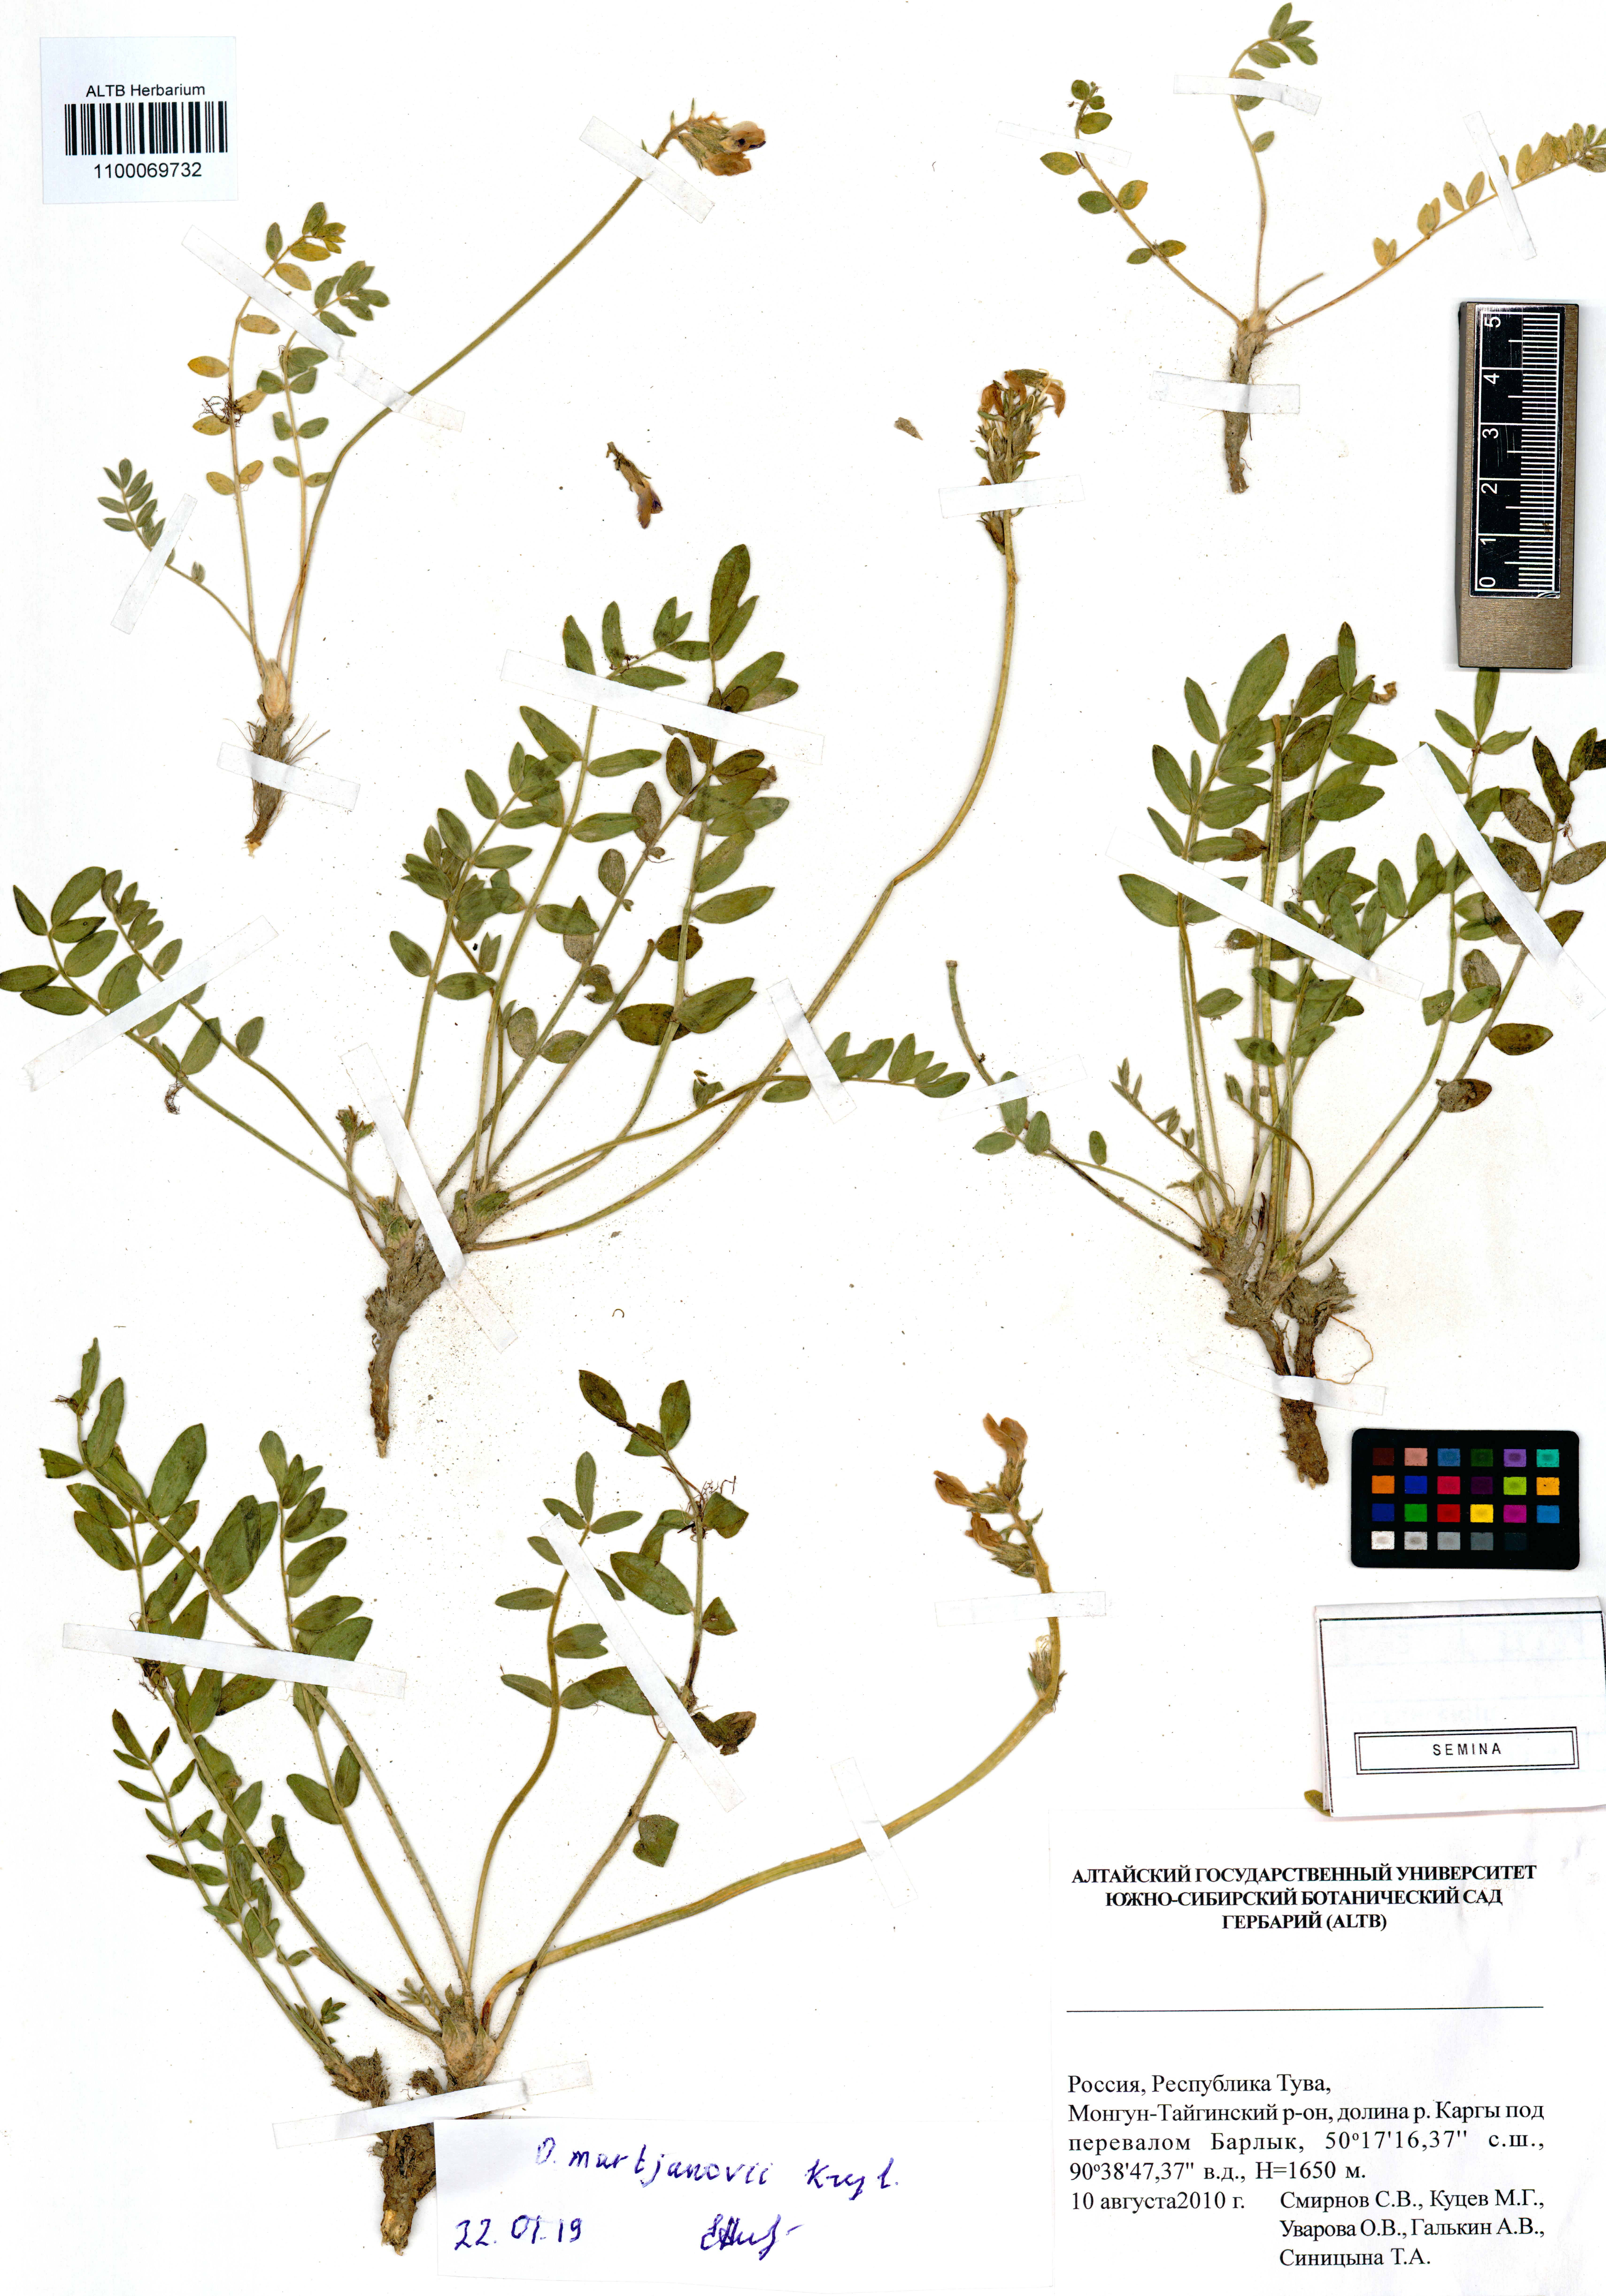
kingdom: Plantae
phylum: Tracheophyta
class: Magnoliopsida
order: Fabales
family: Fabaceae
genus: Oxytropis
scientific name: Oxytropis martjanovii
